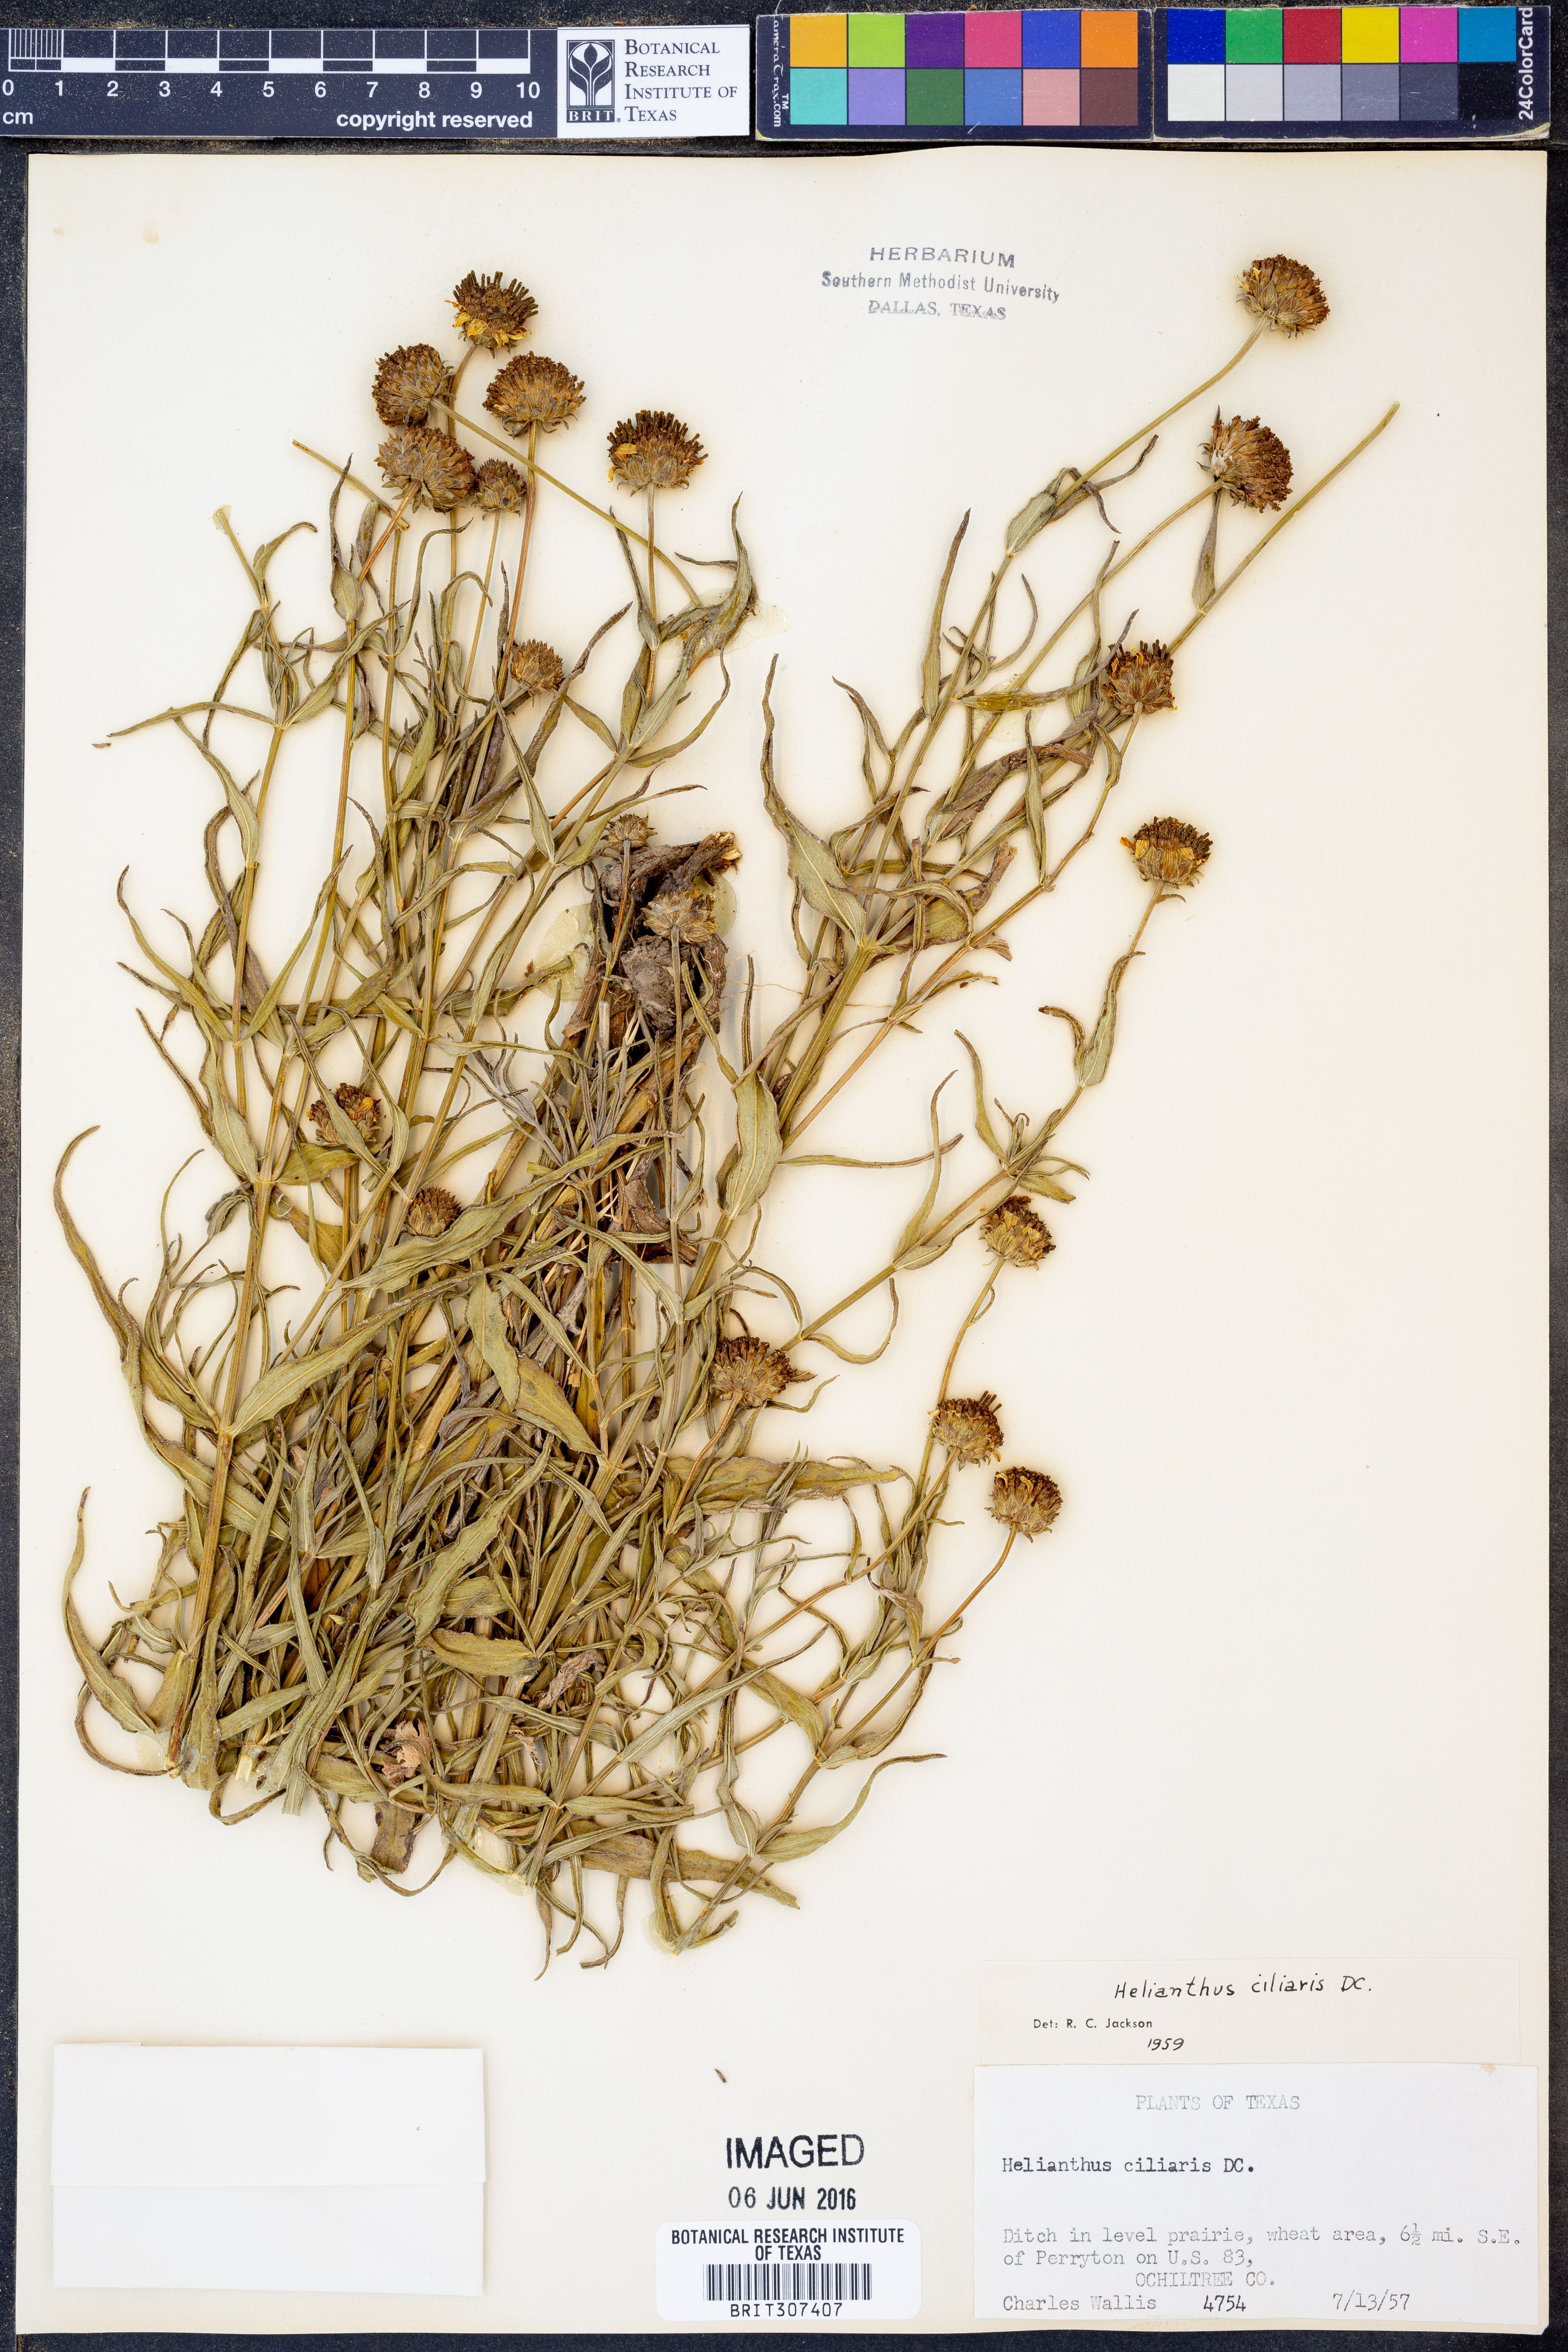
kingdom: Plantae
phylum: Tracheophyta
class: Magnoliopsida
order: Asterales
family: Asteraceae
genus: Helianthus
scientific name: Helianthus ciliaris
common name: Texas blueweed
